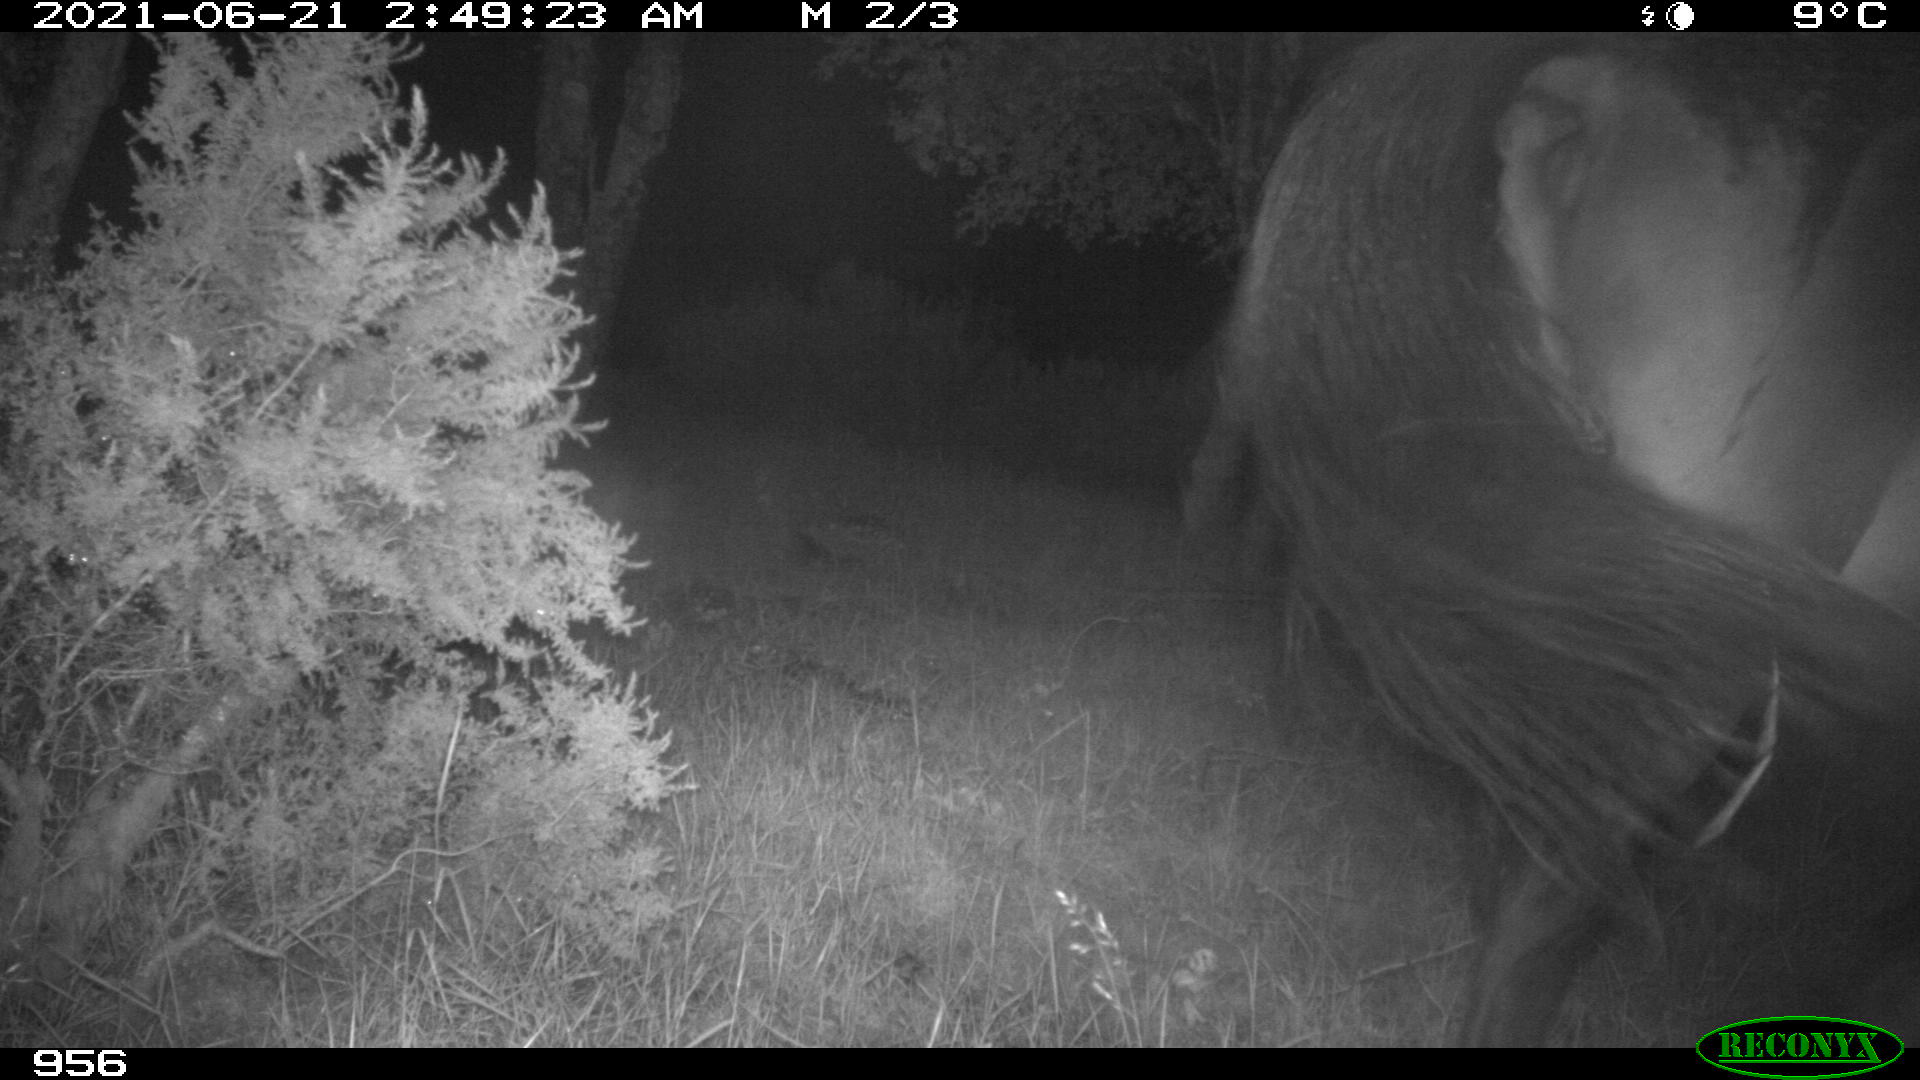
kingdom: Animalia
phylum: Chordata
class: Mammalia
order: Perissodactyla
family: Equidae
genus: Equus
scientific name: Equus caballus
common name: Horse
